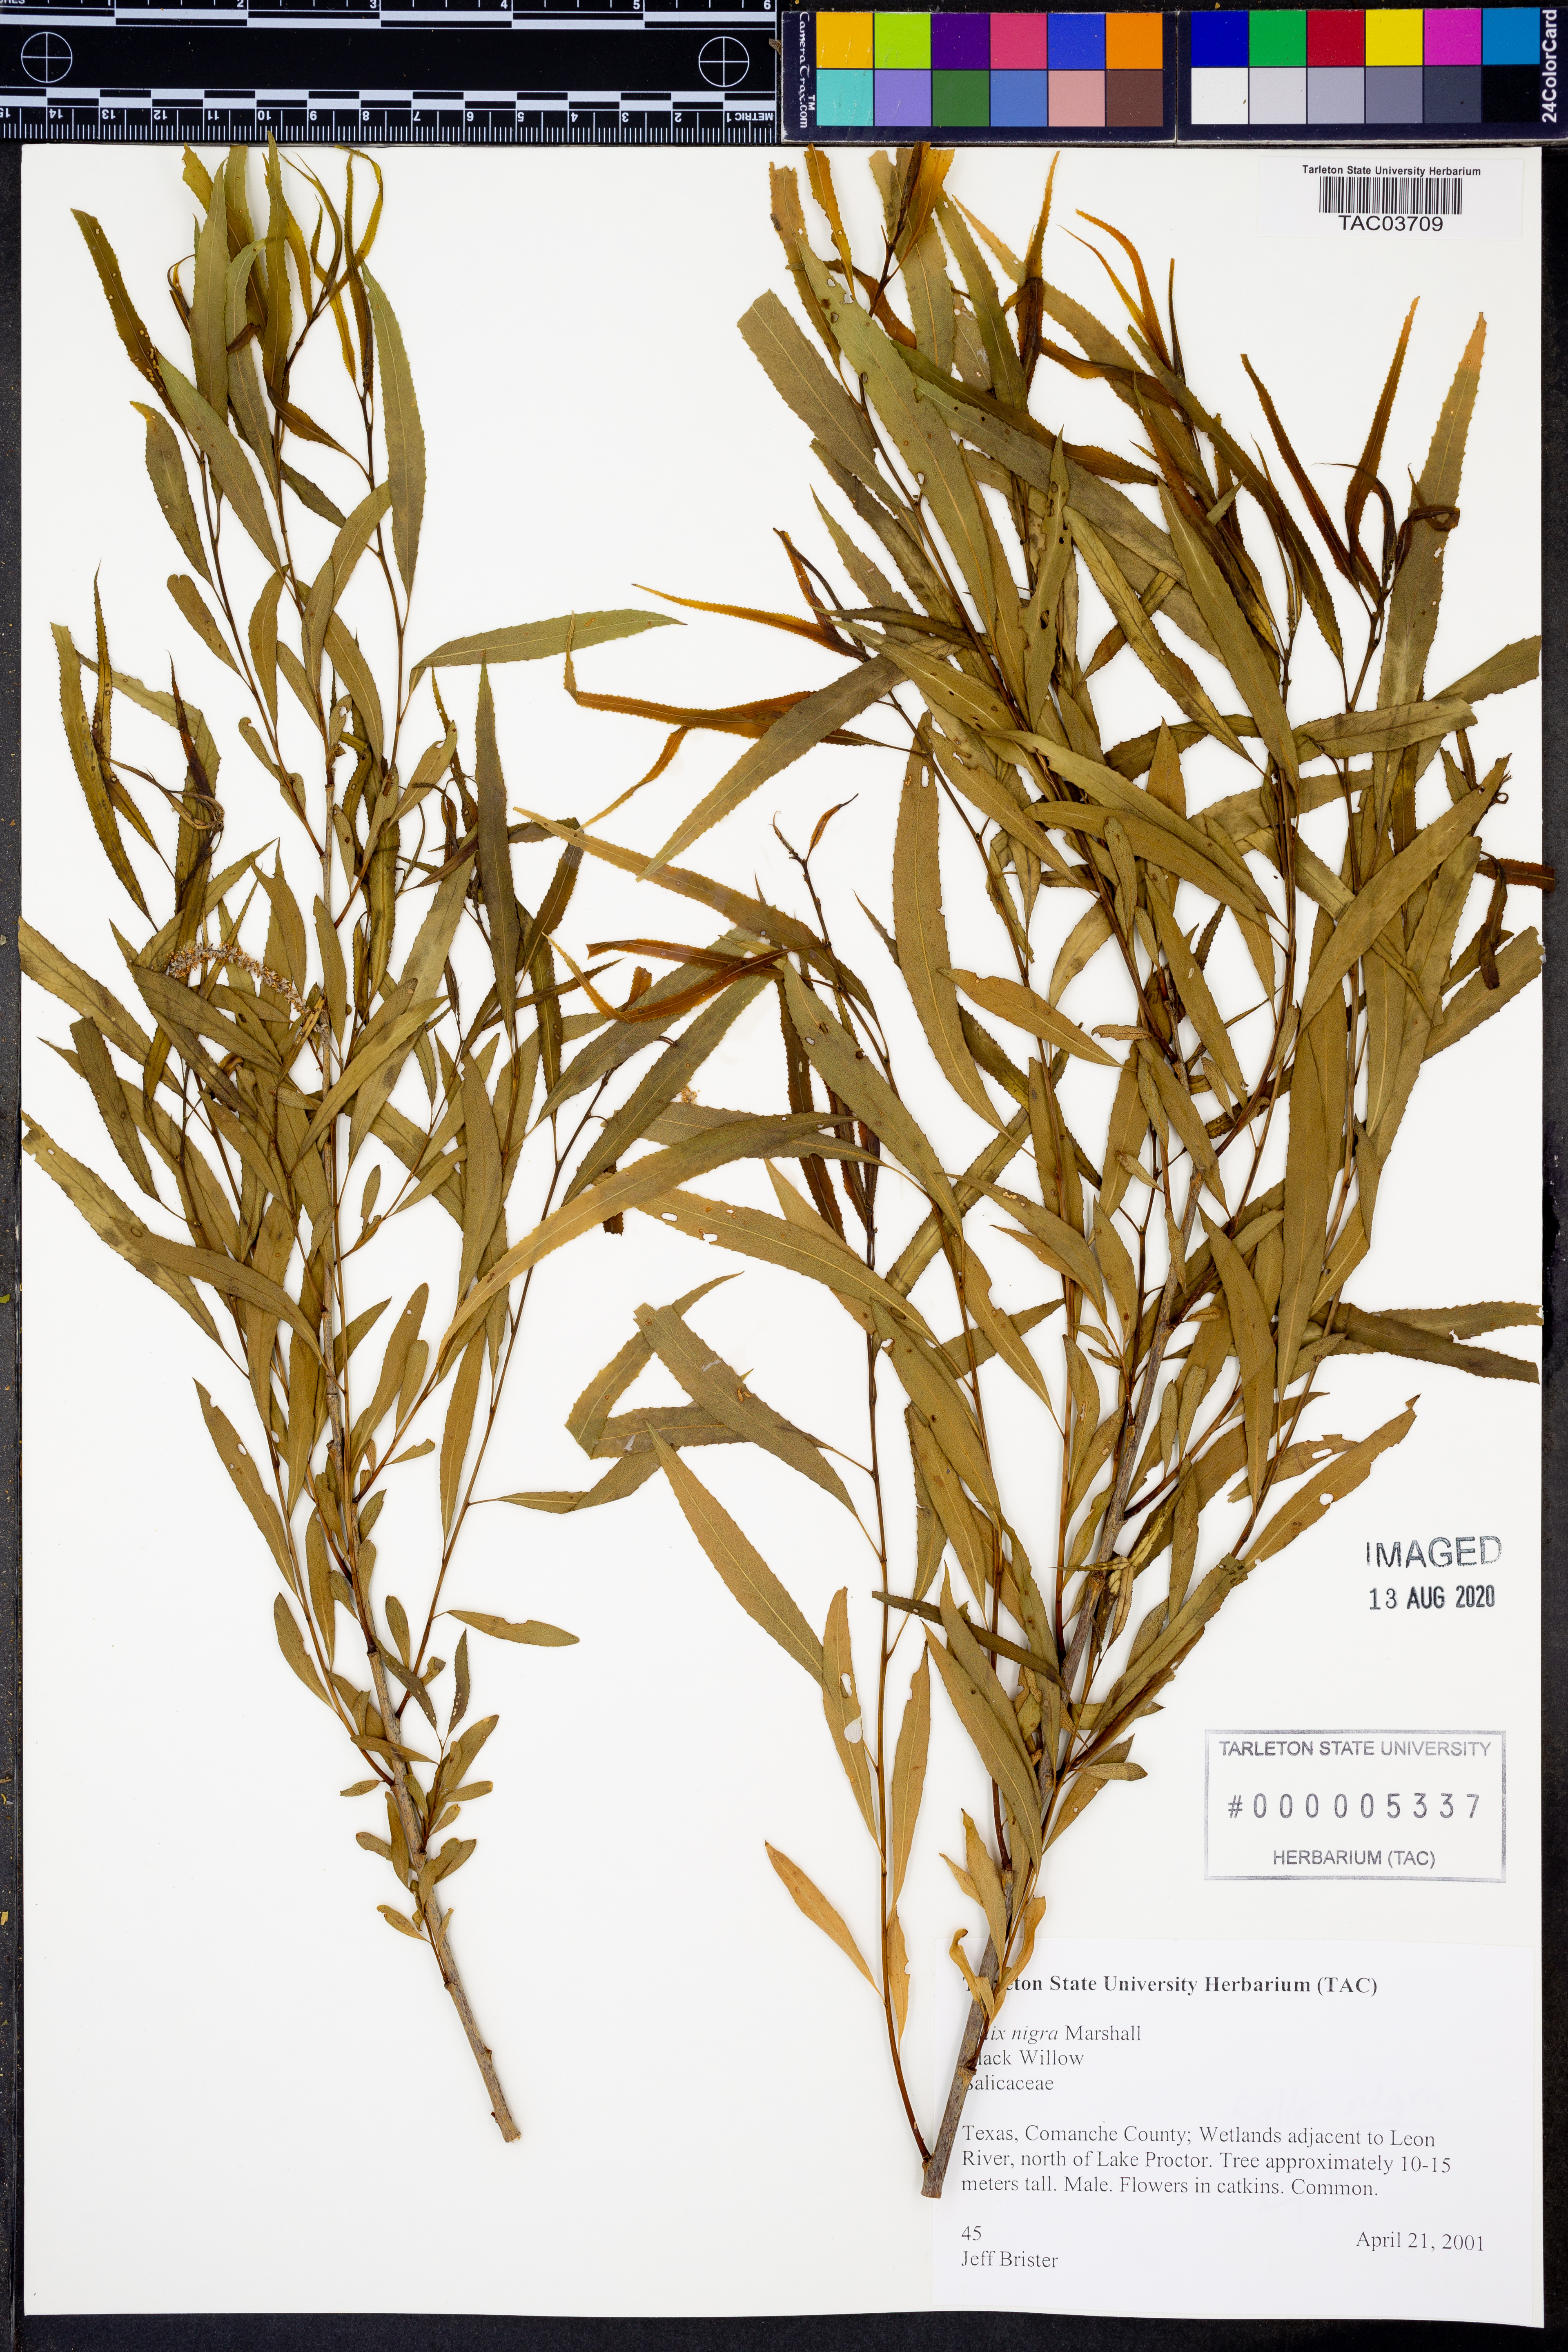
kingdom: Plantae
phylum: Tracheophyta
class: Magnoliopsida
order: Malpighiales
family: Salicaceae
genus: Salix
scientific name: Salix nigra
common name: Black willow
